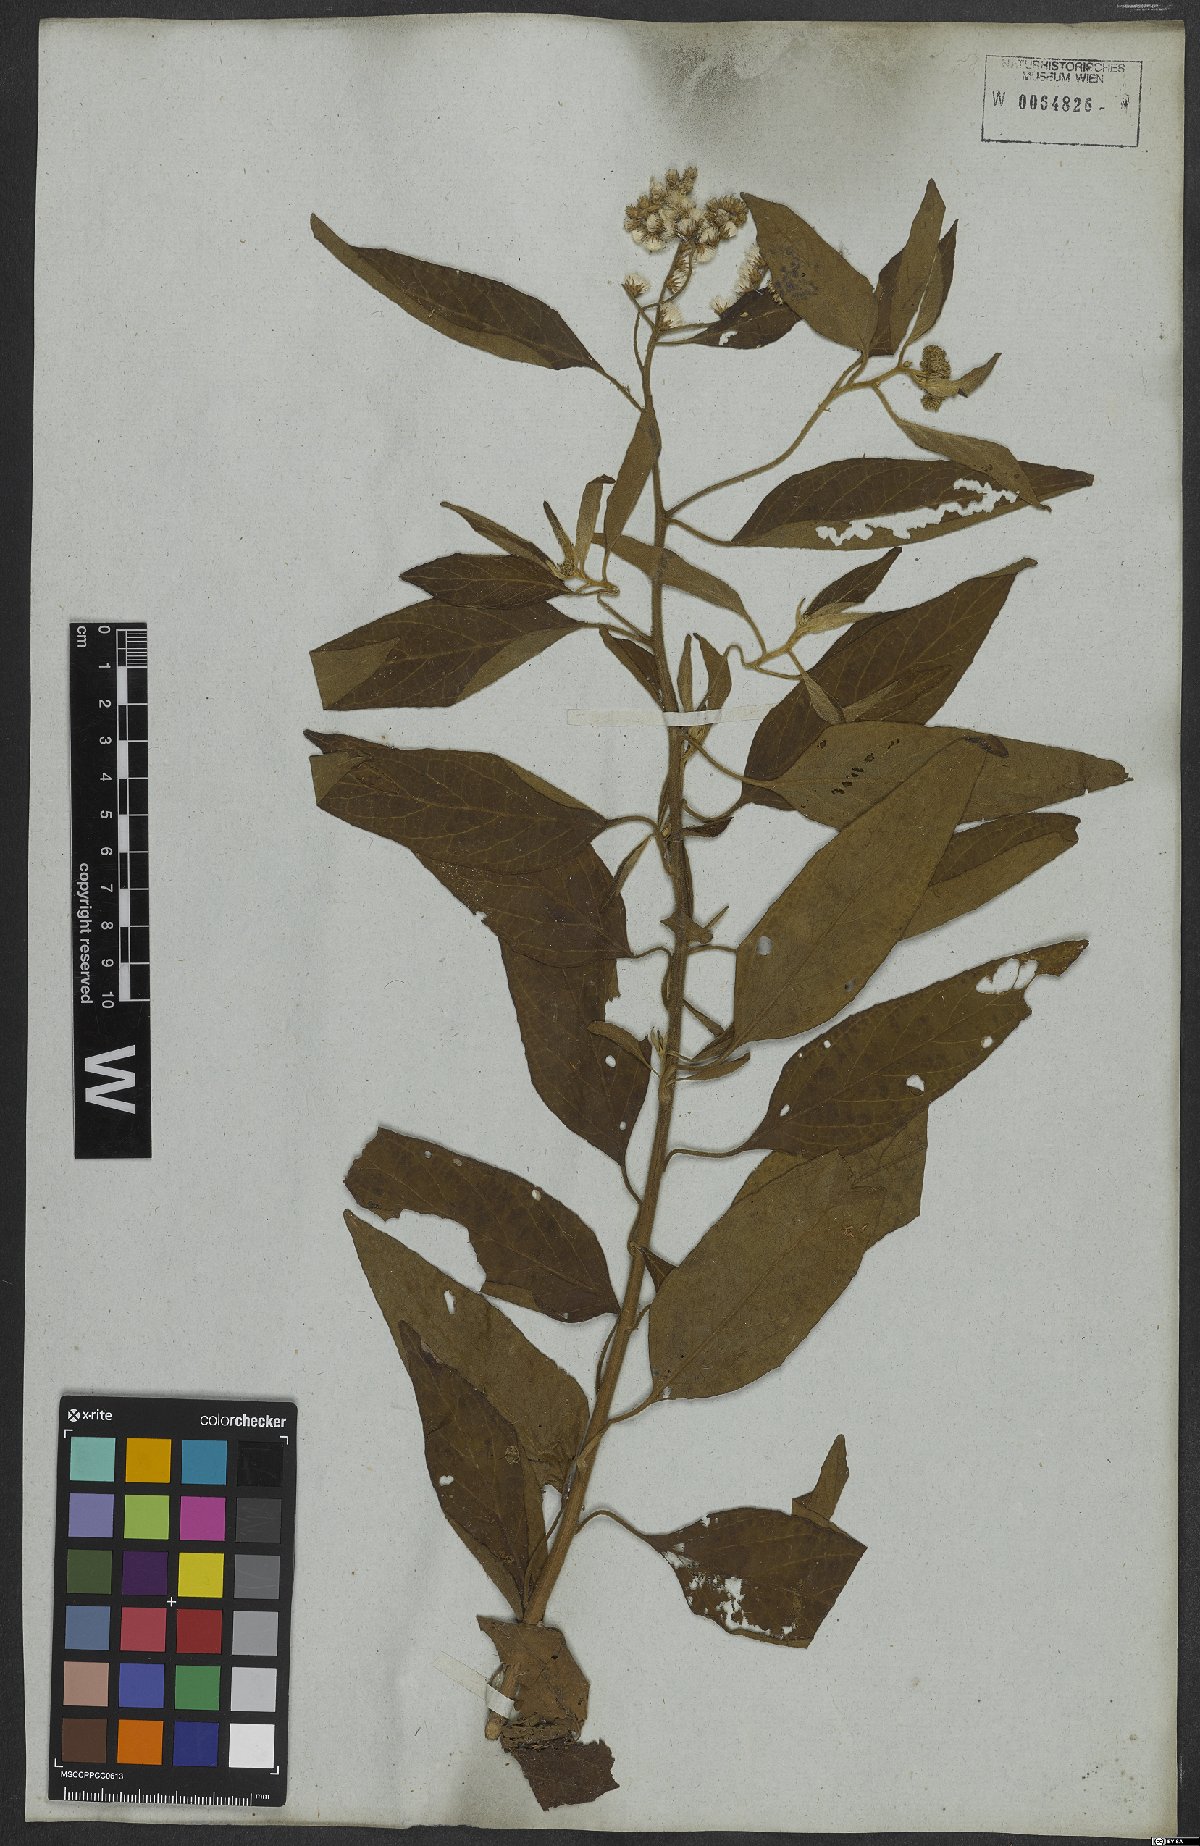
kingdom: Plantae
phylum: Tracheophyta
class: Magnoliopsida
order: Asterales
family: Asteraceae
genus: Cyrtocymura
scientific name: Cyrtocymura scorpioides
